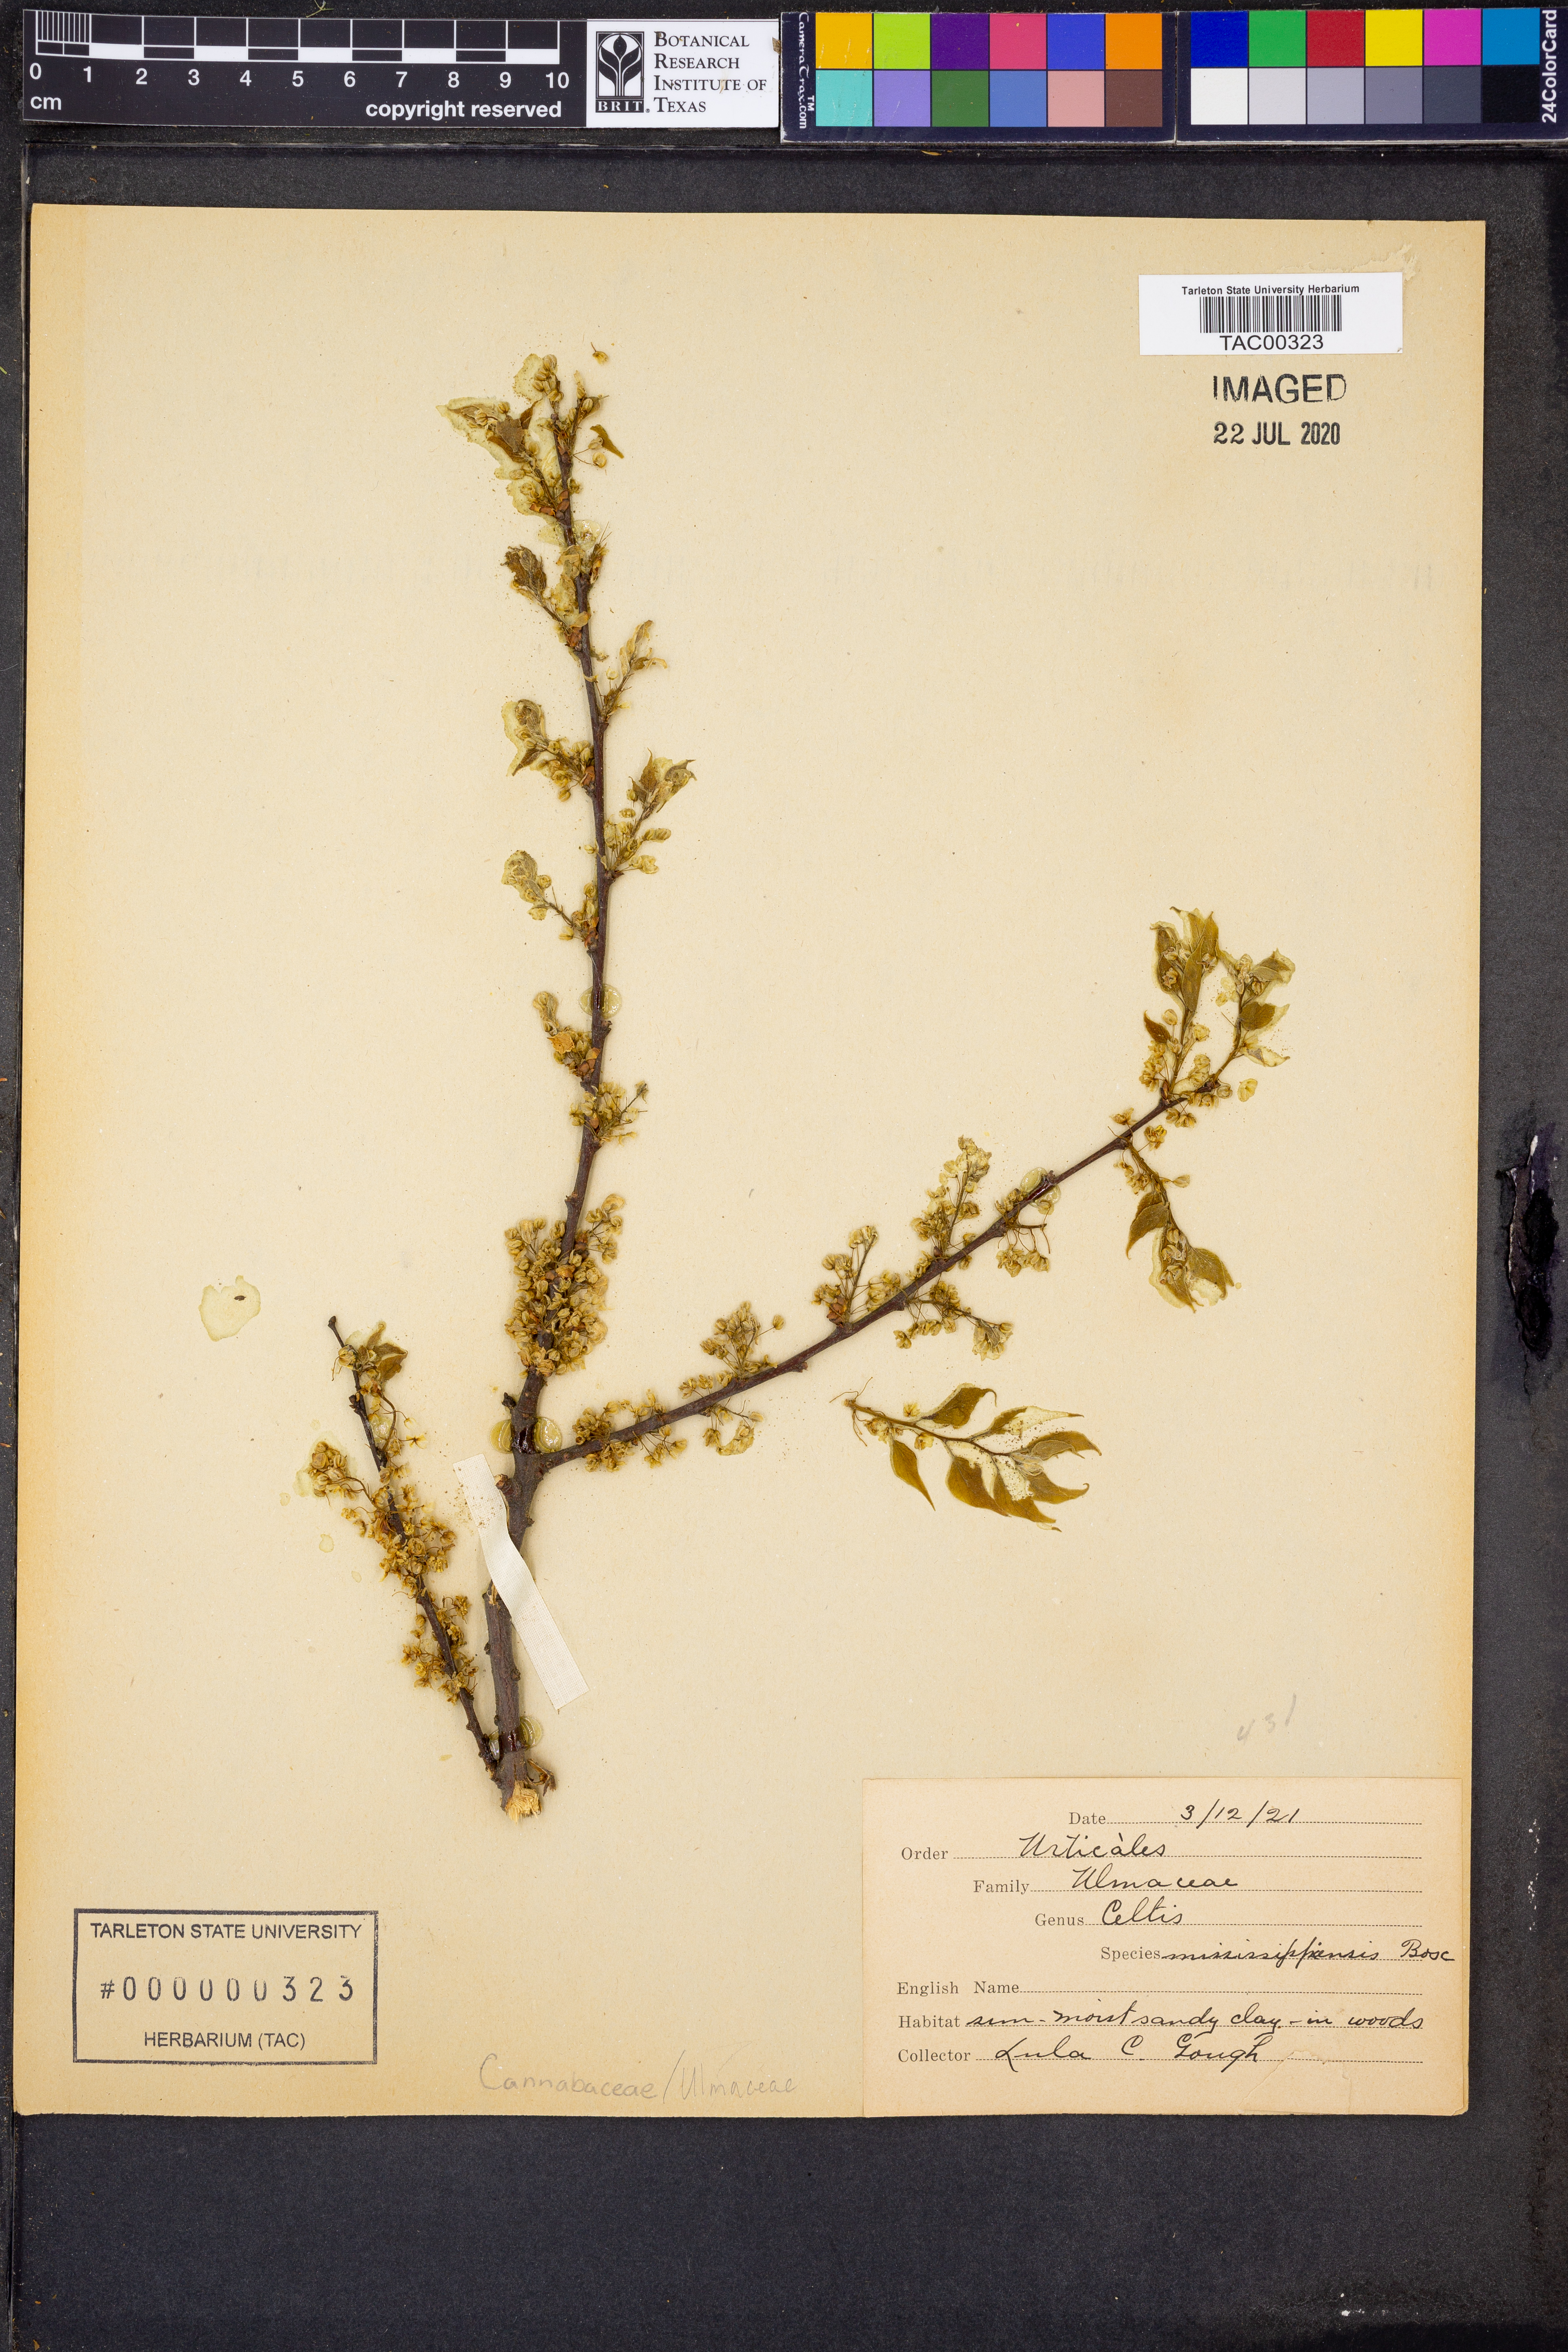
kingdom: Plantae
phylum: Tracheophyta
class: Magnoliopsida
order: Rosales
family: Cannabaceae
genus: Celtis
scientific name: Celtis
